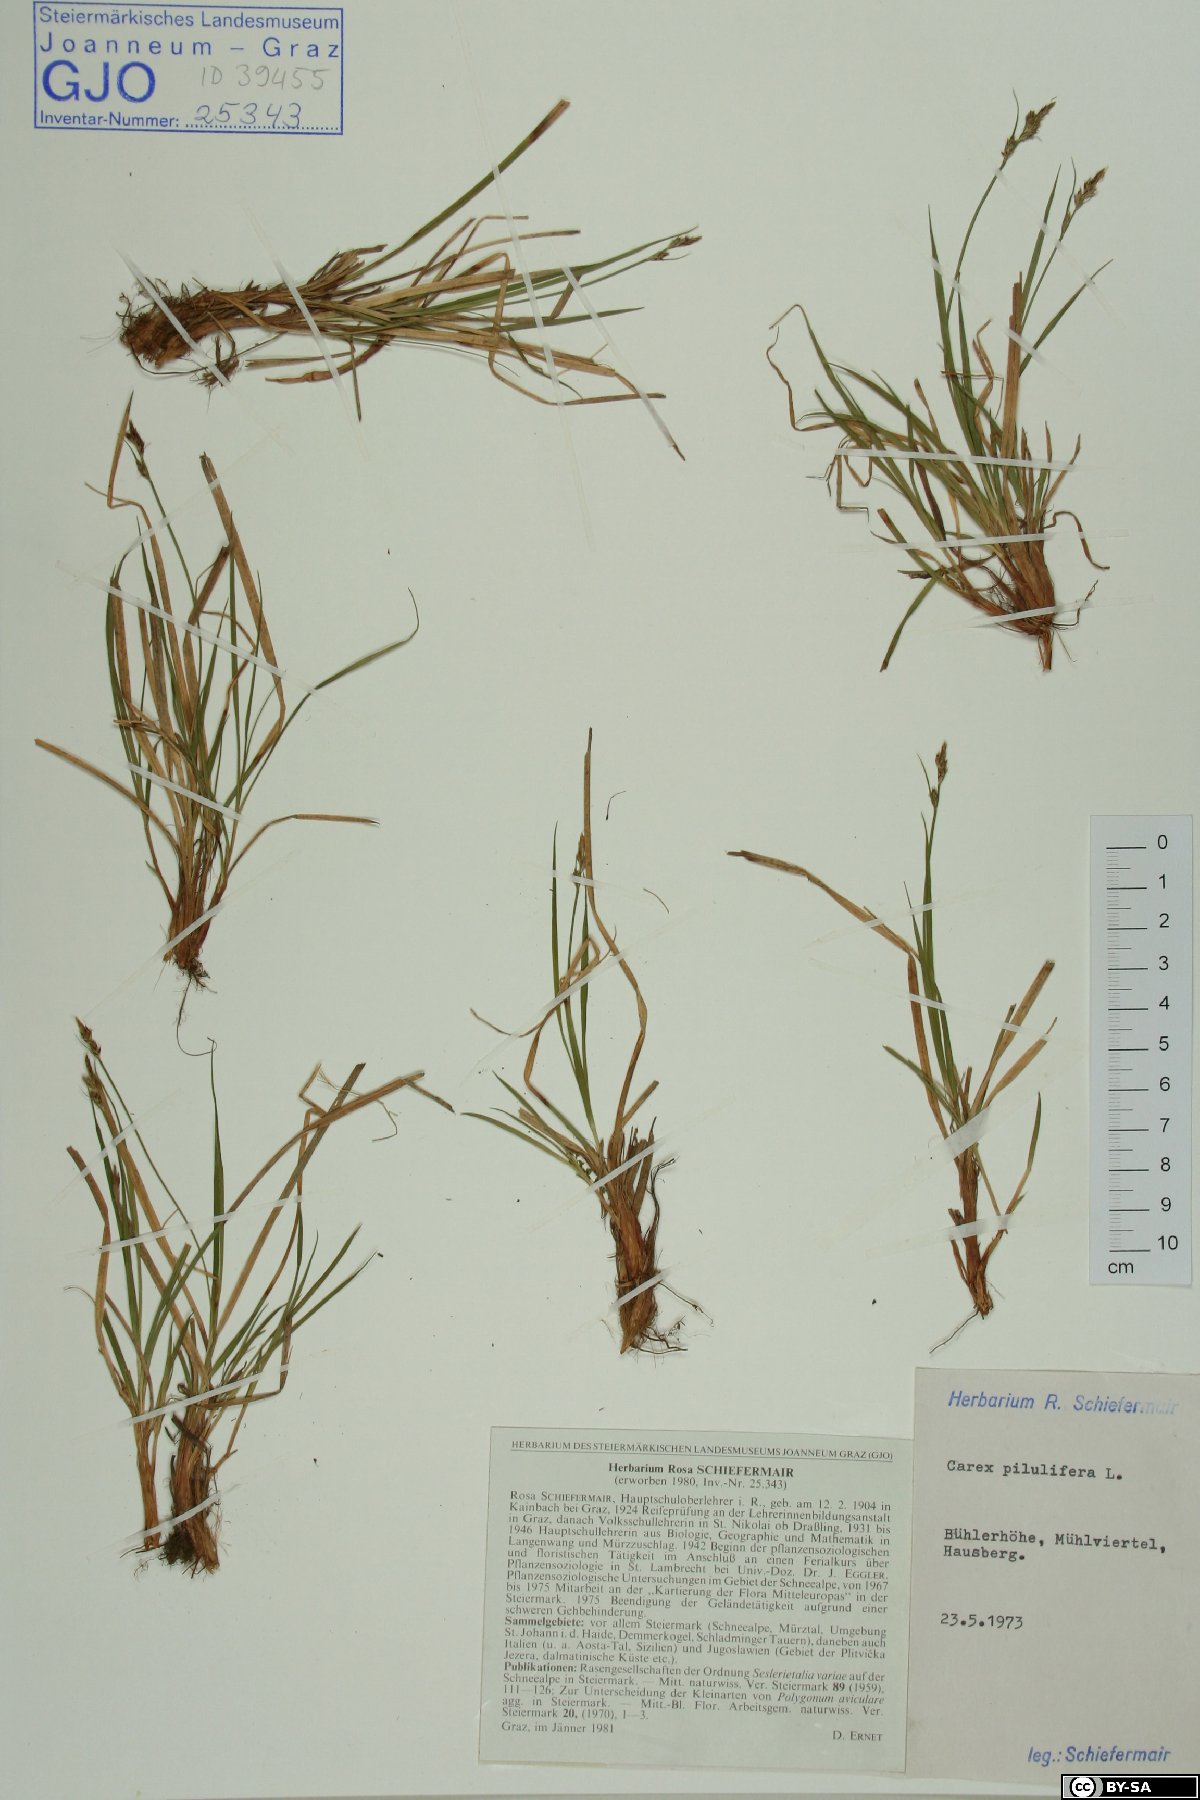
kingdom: Plantae
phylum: Tracheophyta
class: Liliopsida
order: Poales
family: Cyperaceae
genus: Carex
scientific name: Carex pilulifera
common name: Pill sedge
